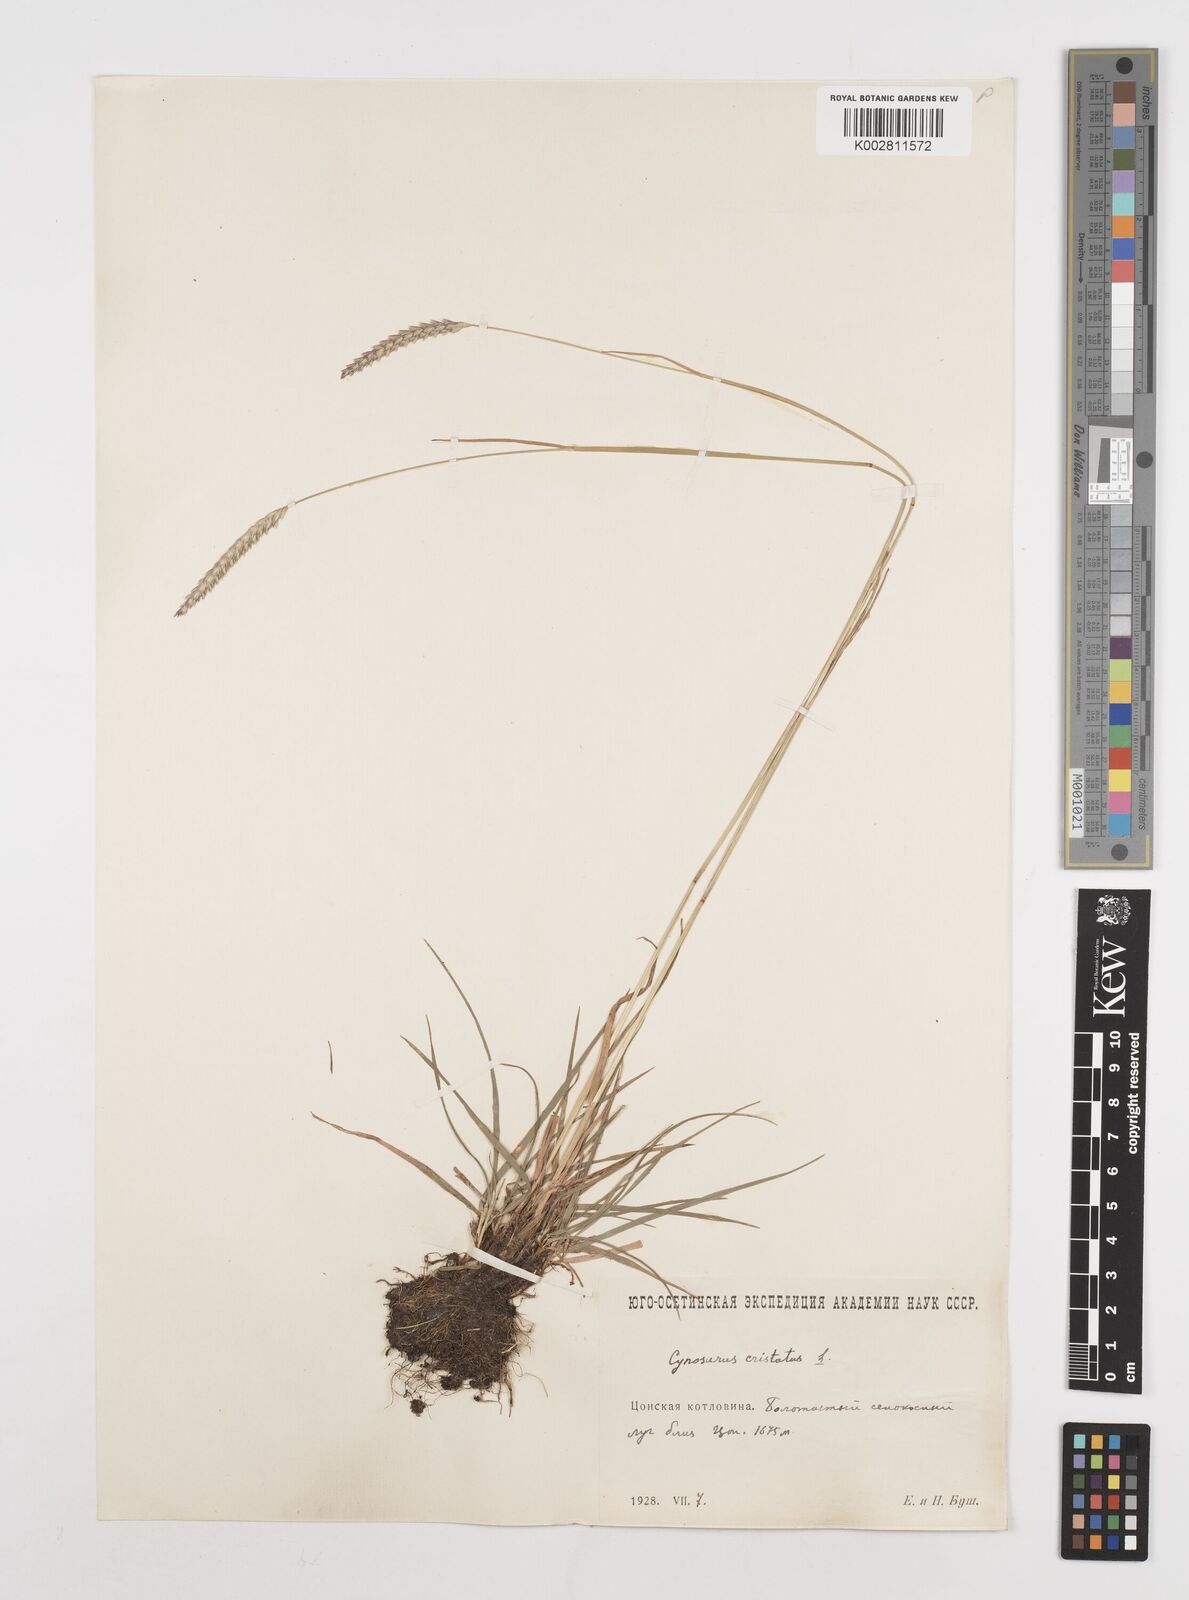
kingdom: Plantae
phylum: Tracheophyta
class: Liliopsida
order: Poales
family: Poaceae
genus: Cynosurus
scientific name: Cynosurus cristatus
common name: Crested dog's-tail
